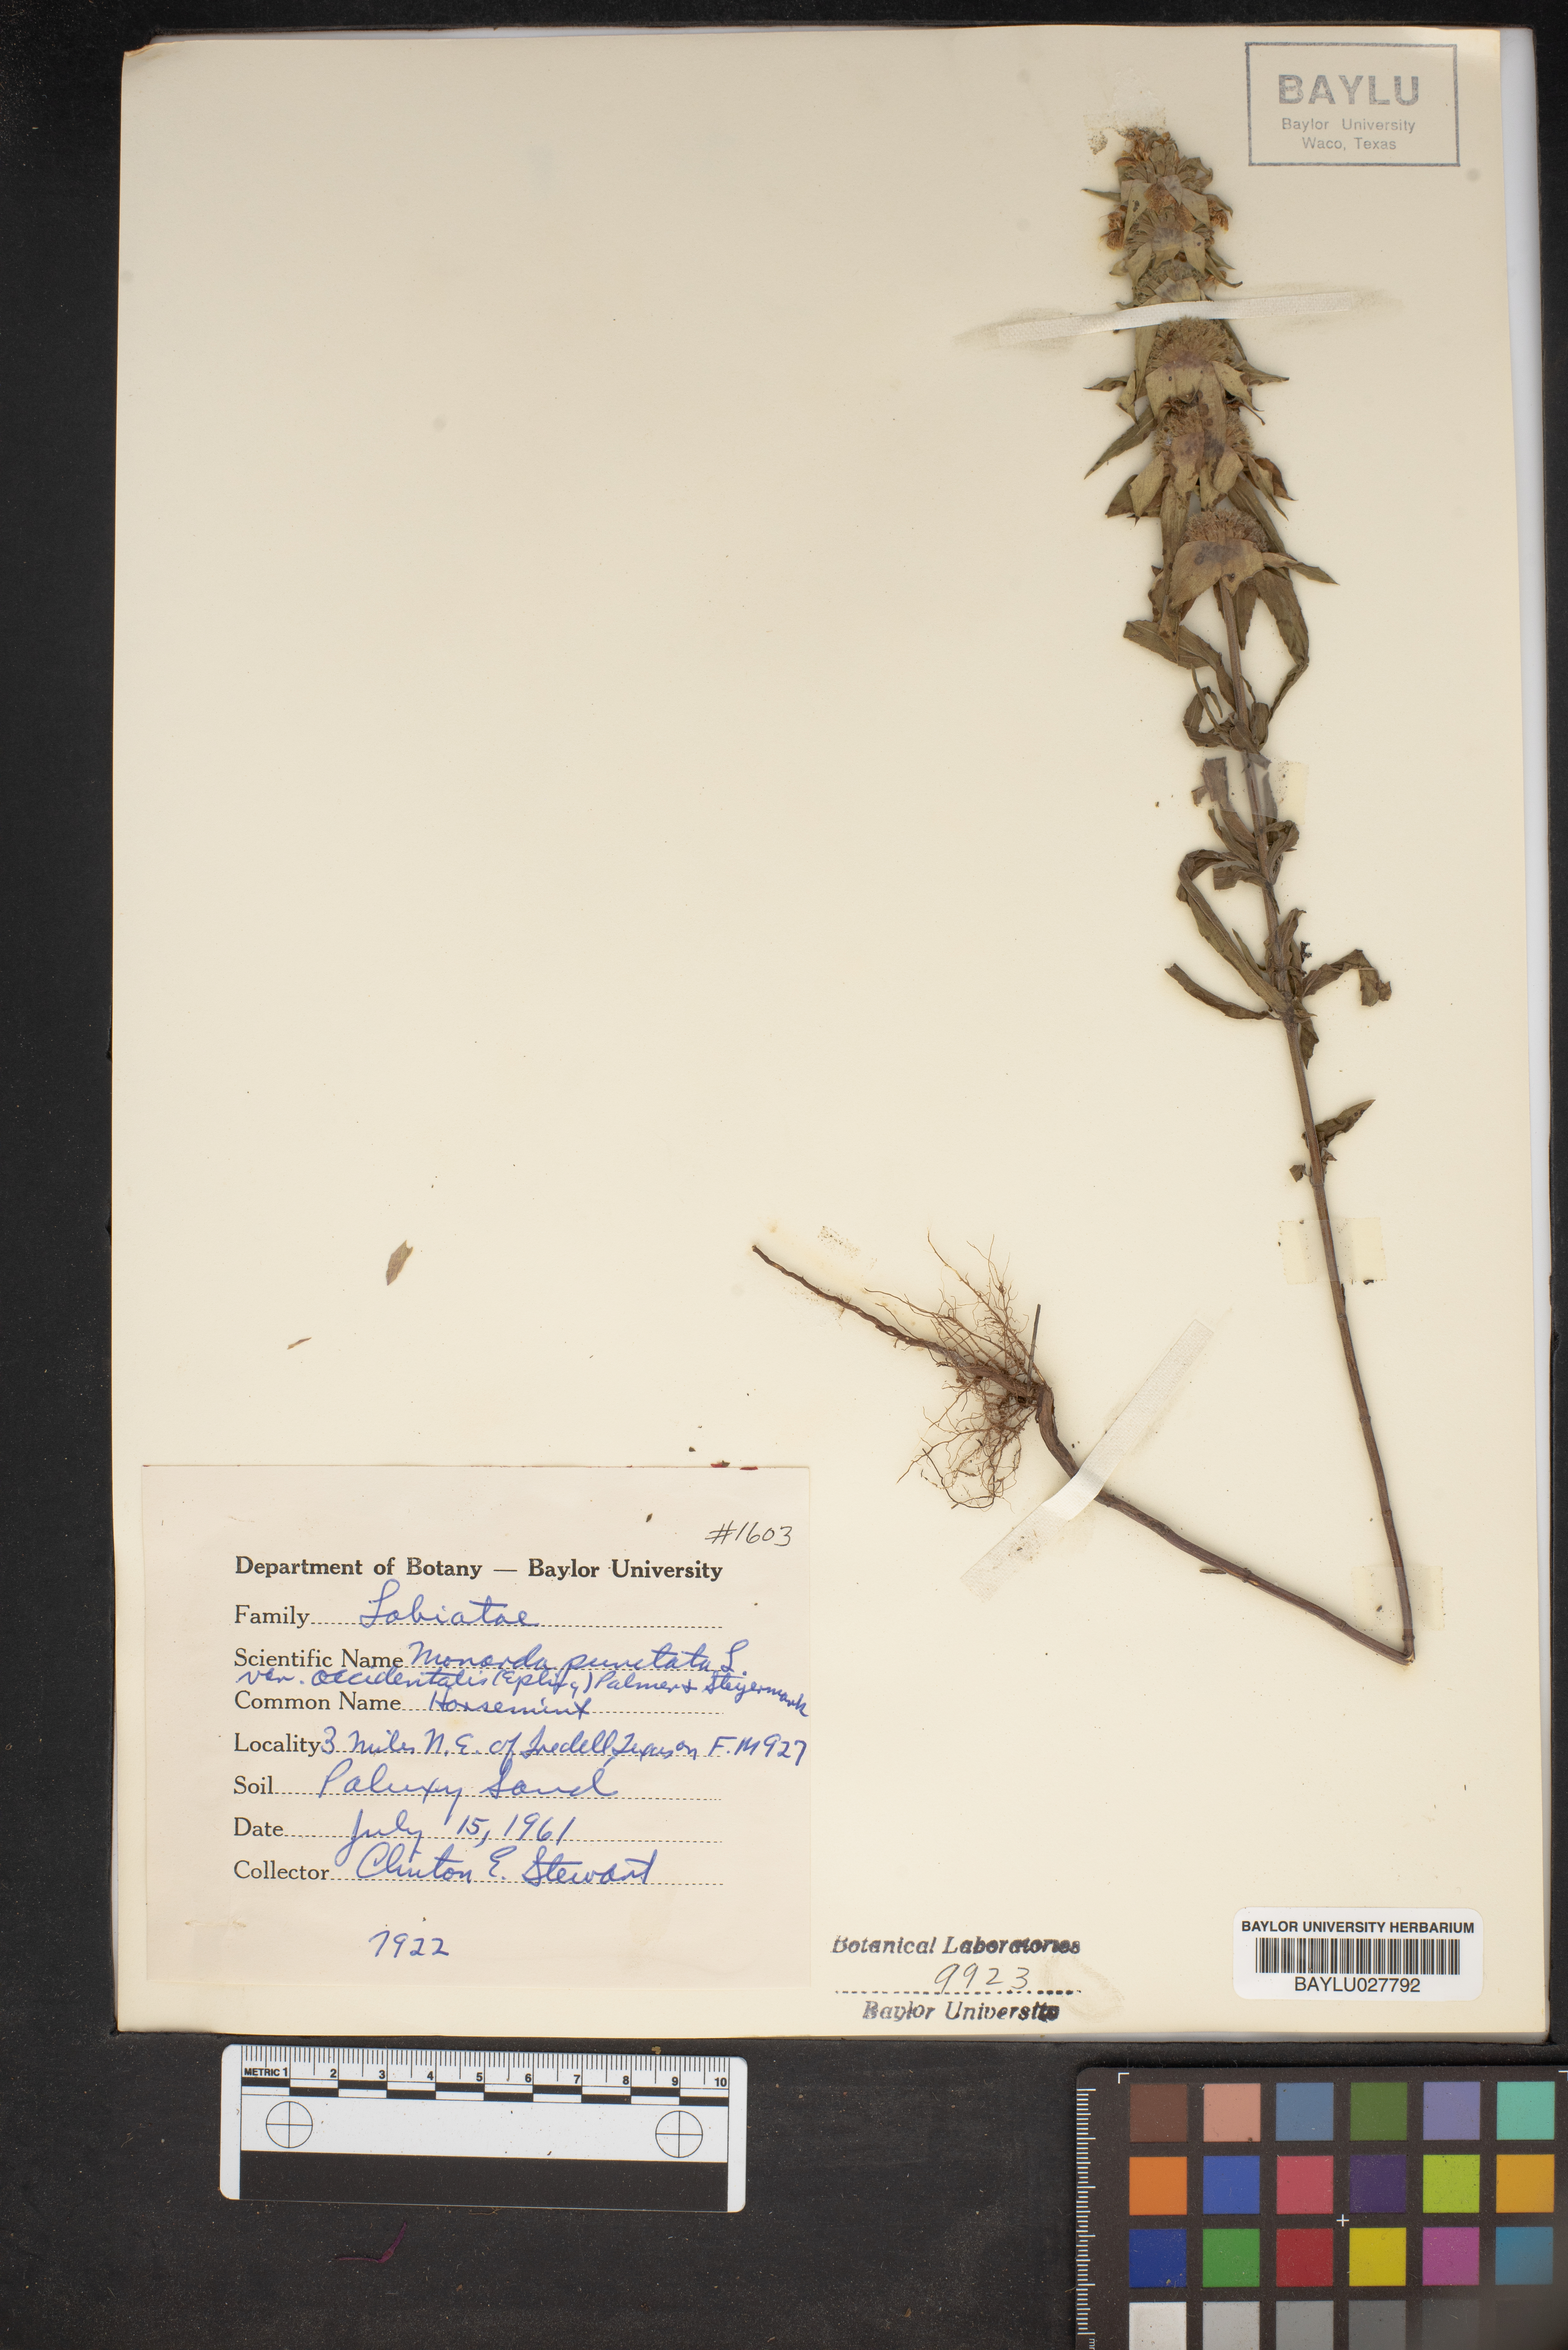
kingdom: Plantae
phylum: Tracheophyta
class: Magnoliopsida
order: Lamiales
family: Lamiaceae
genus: Monarda
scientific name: Monarda punctata
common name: Dotted monarda
